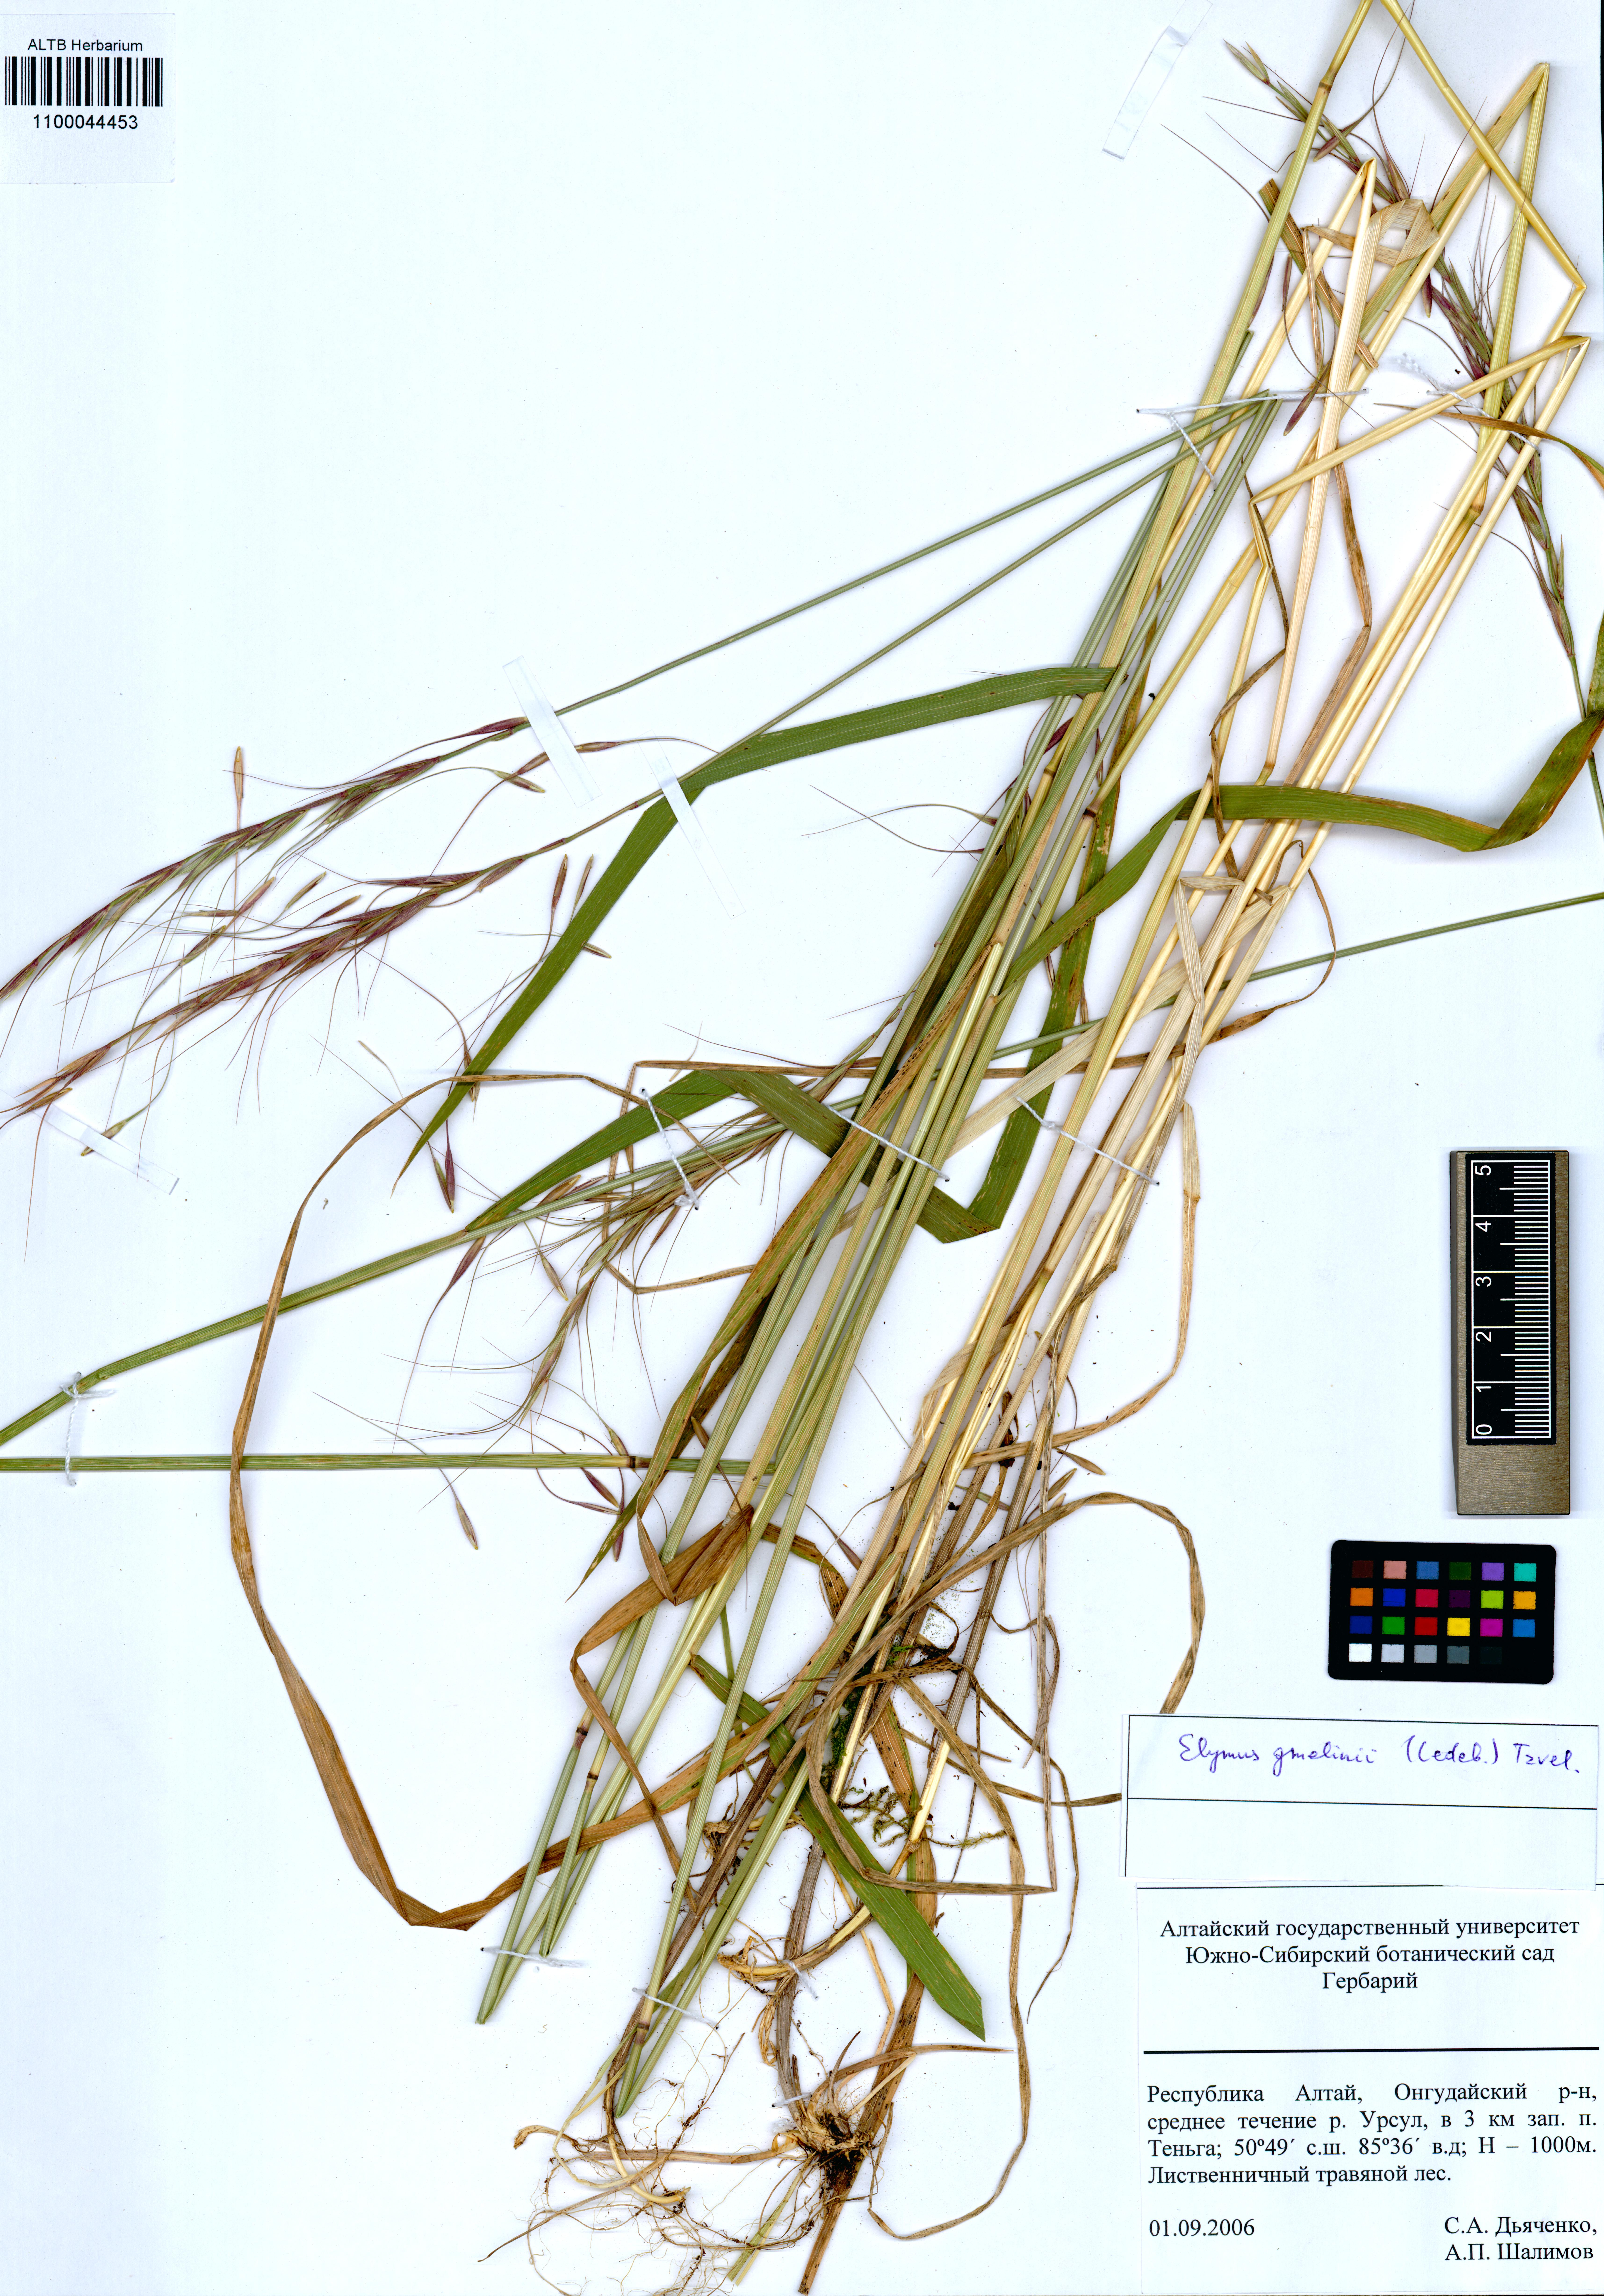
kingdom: Plantae
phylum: Tracheophyta
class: Liliopsida
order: Poales
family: Poaceae
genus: Elymus
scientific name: Elymus gmelinii
